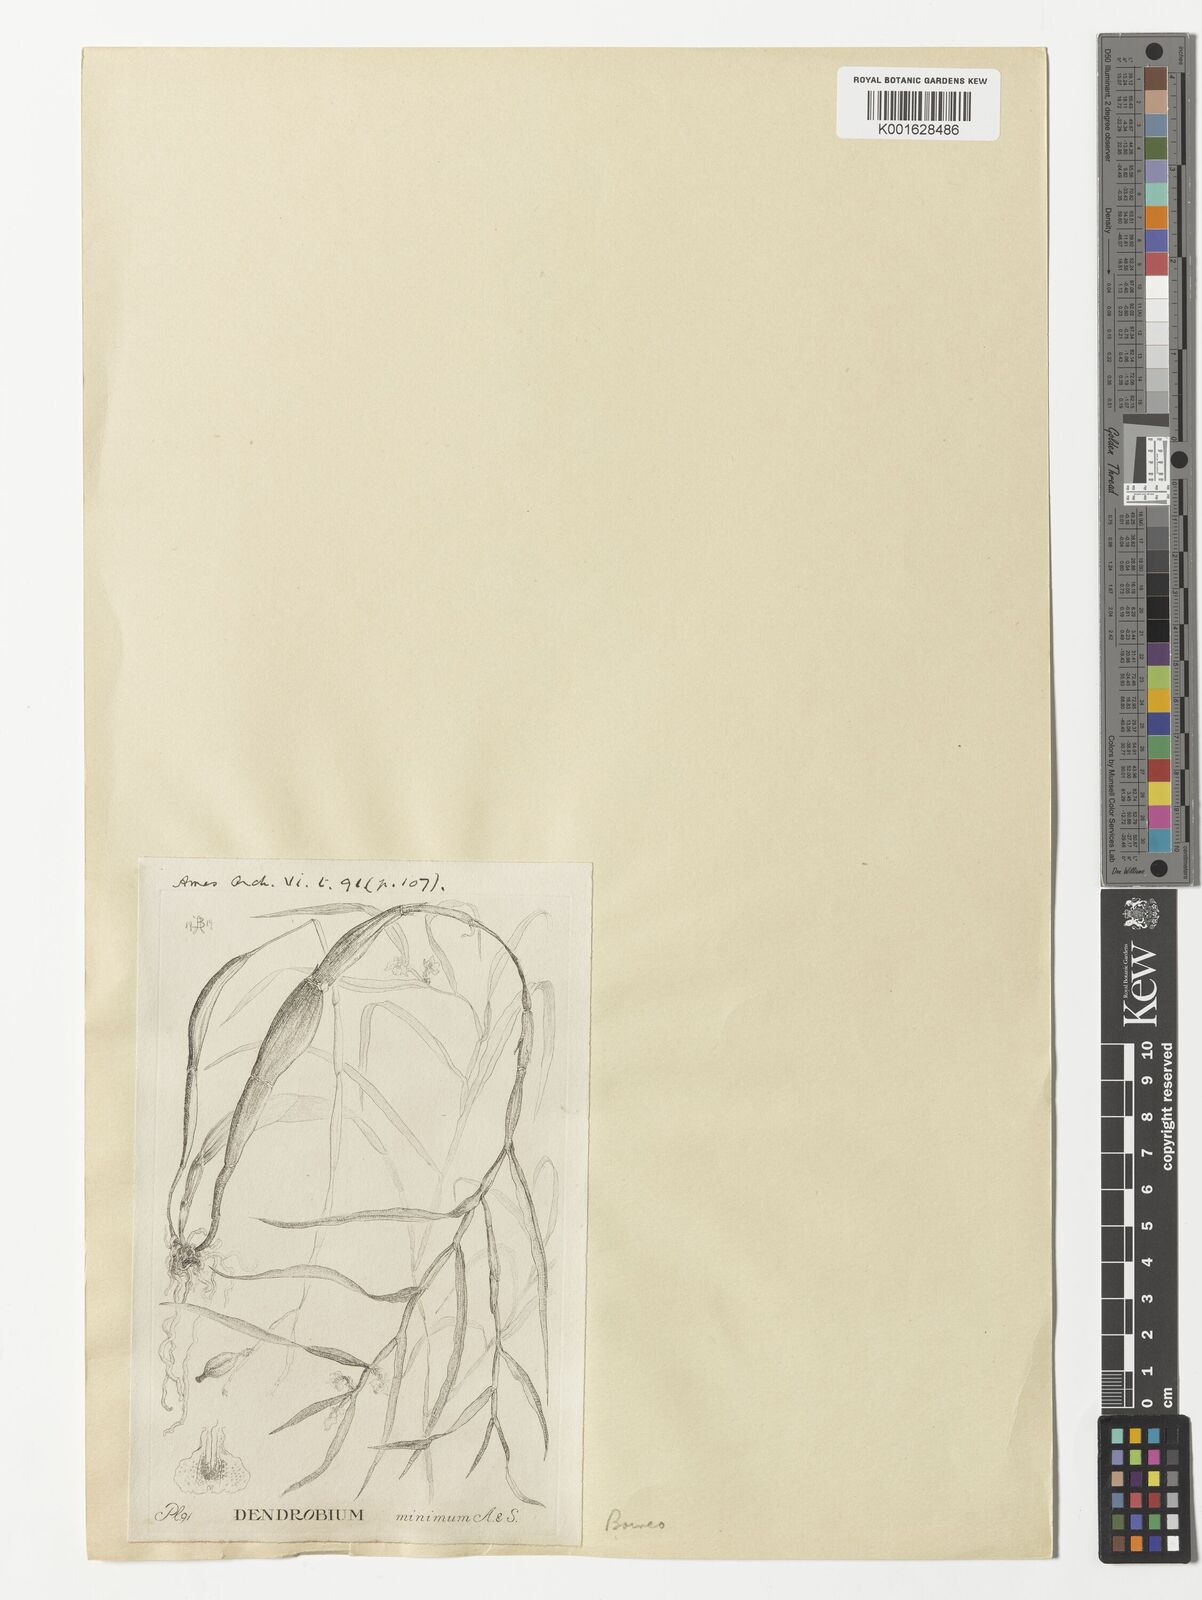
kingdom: Plantae
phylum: Tracheophyta
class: Liliopsida
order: Asparagales
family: Orchidaceae
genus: Callostylis
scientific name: Callostylis pulchella
